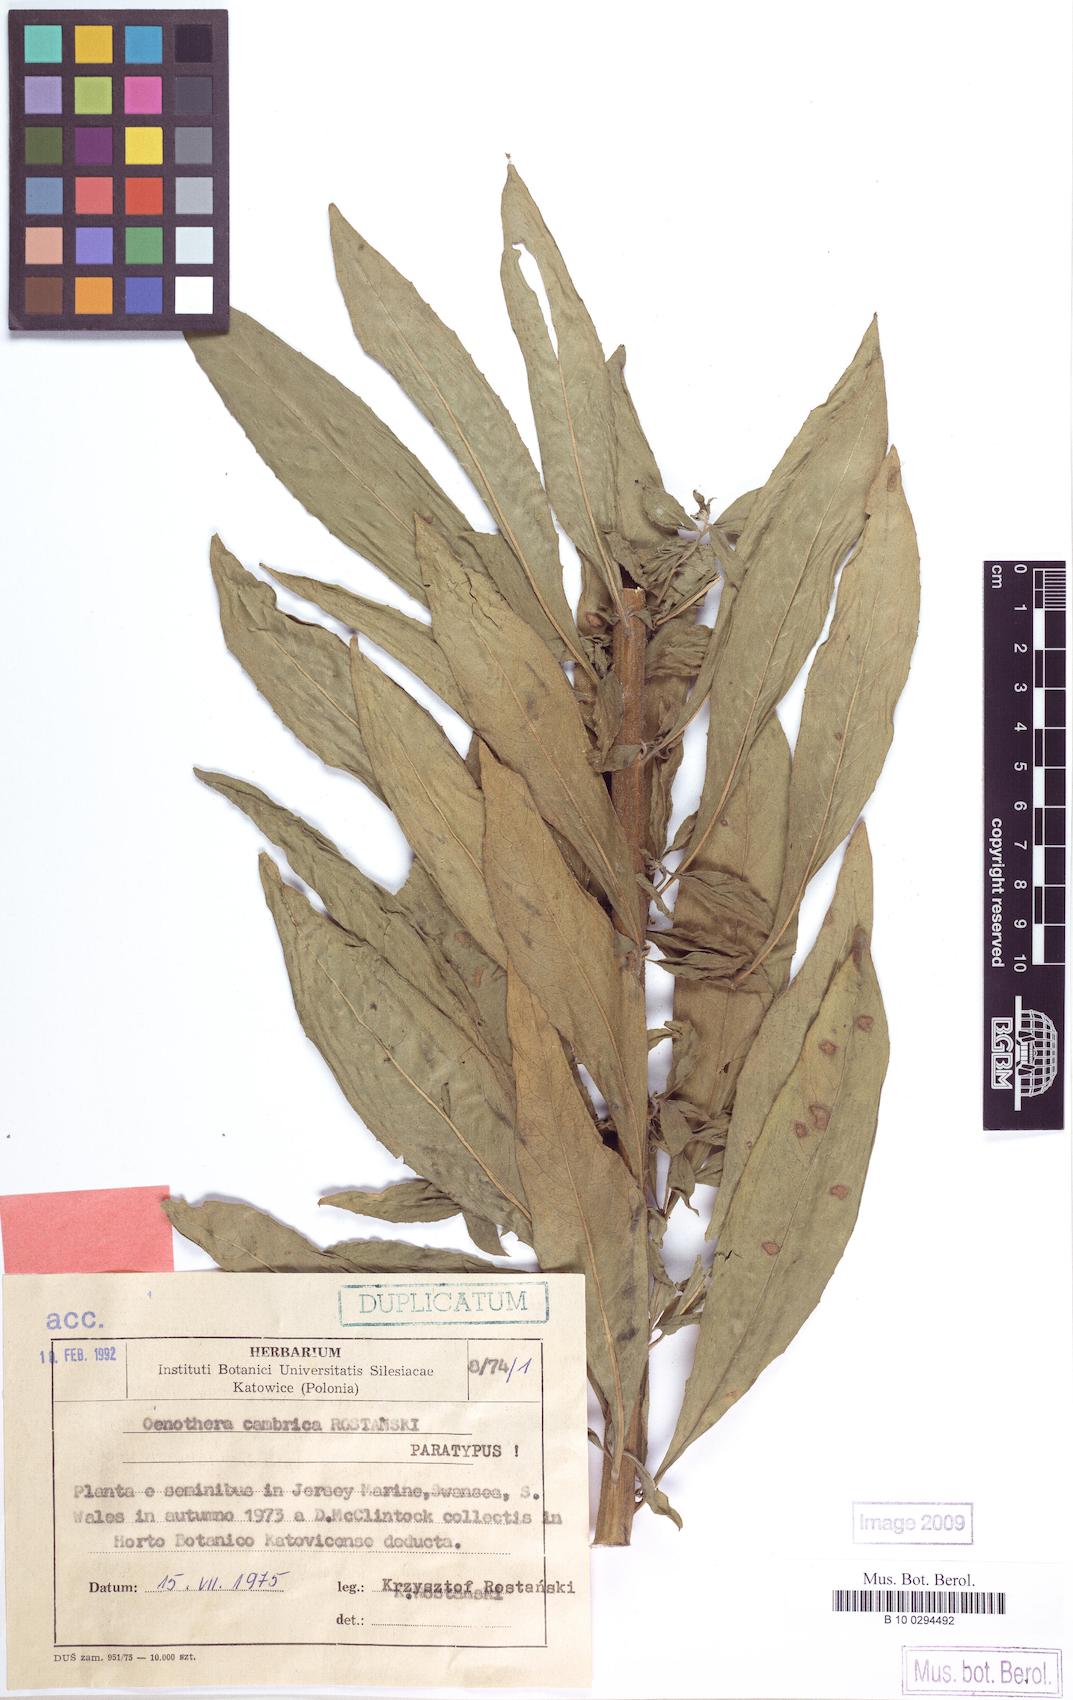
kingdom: Plantae
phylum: Tracheophyta
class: Magnoliopsida
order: Myrtales
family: Onagraceae
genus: Oenothera
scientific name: Oenothera cambrica
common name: Small-flowered evening-primrose
